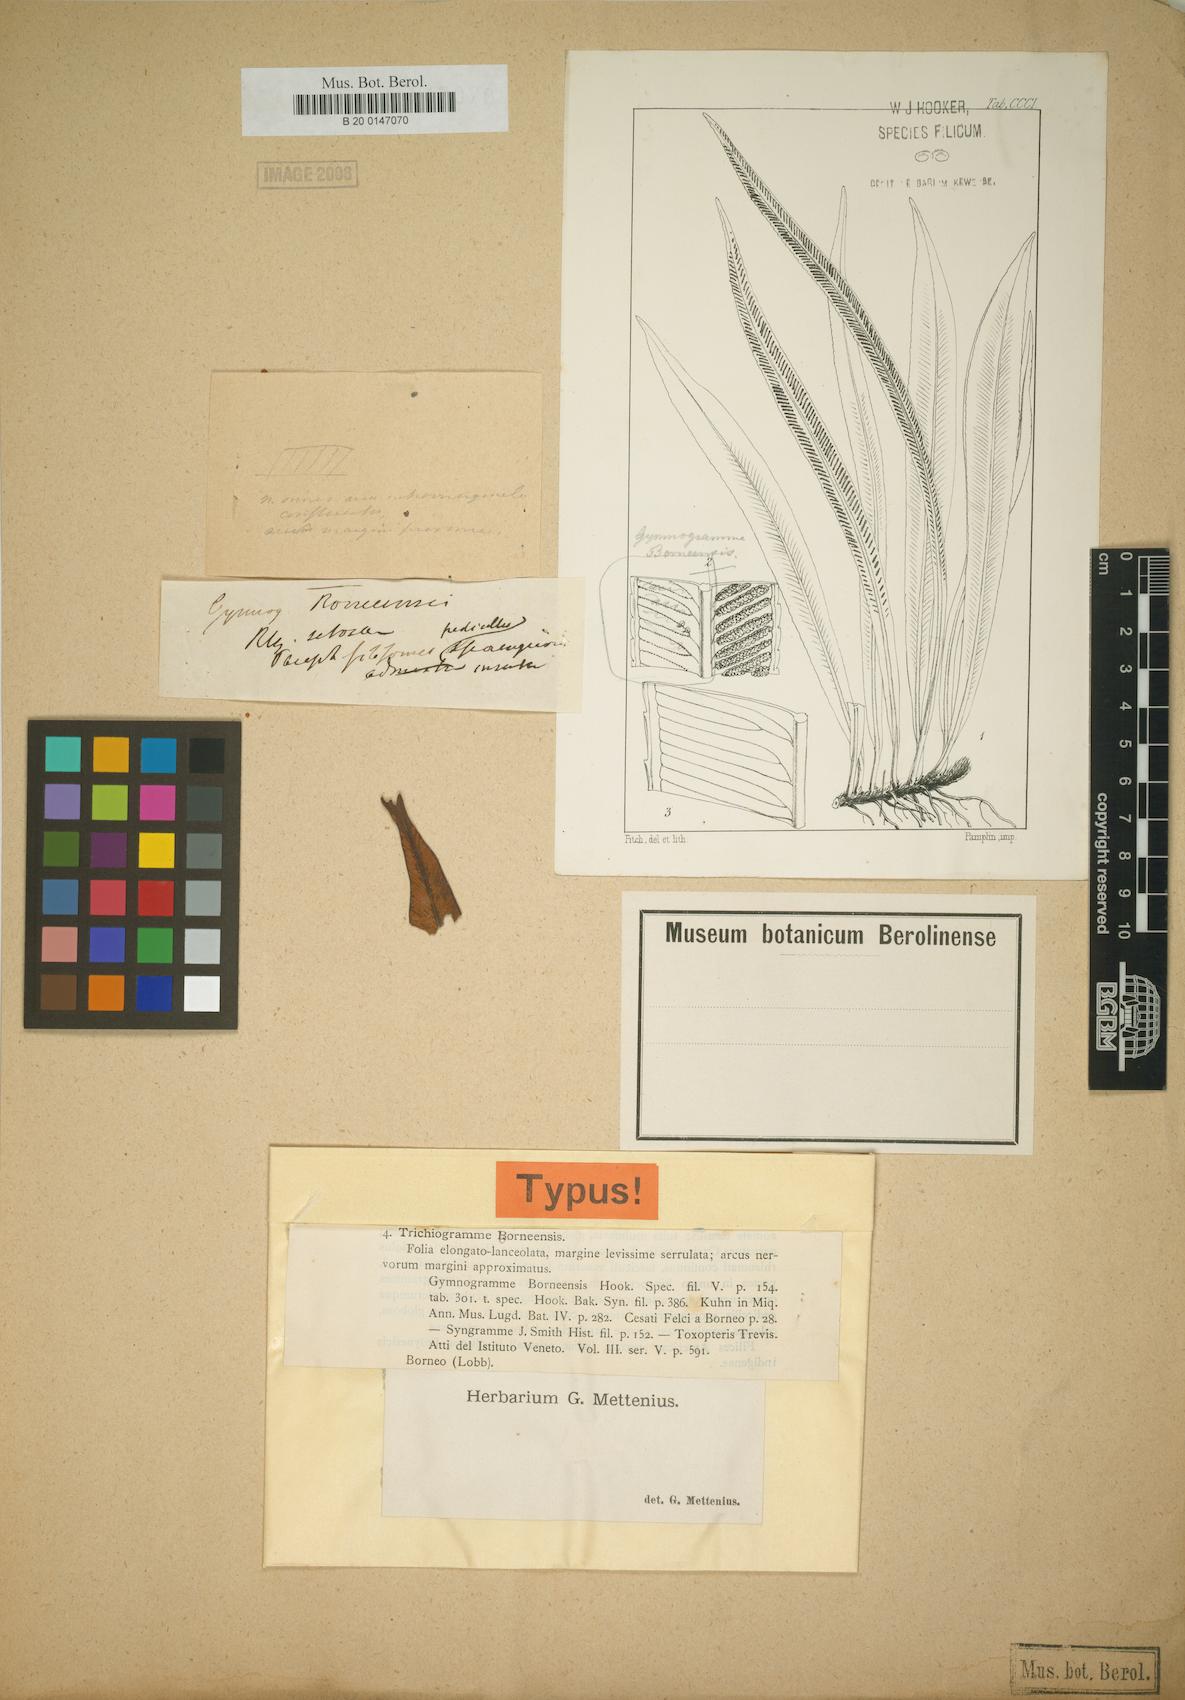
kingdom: Plantae
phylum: Tracheophyta
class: Polypodiopsida
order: Polypodiales
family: Pteridaceae
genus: Syngramma
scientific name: Syngramma borneensis
